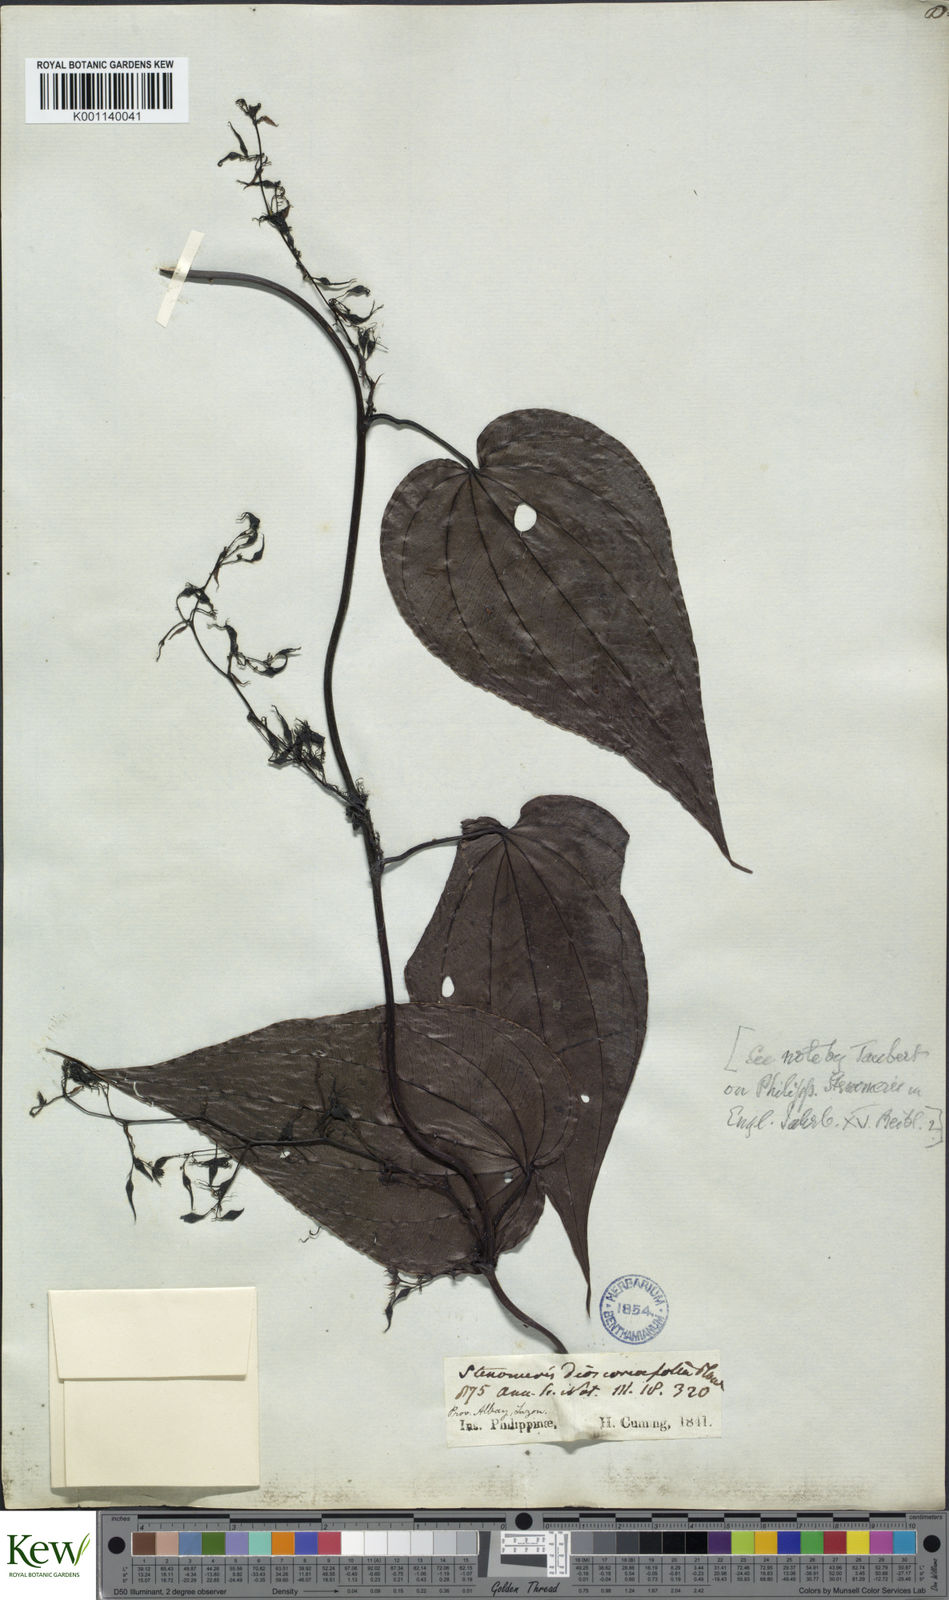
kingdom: Plantae
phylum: Tracheophyta
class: Liliopsida
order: Dioscoreales
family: Dioscoreaceae
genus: Stenomeris
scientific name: Stenomeris dioscoreifolia
